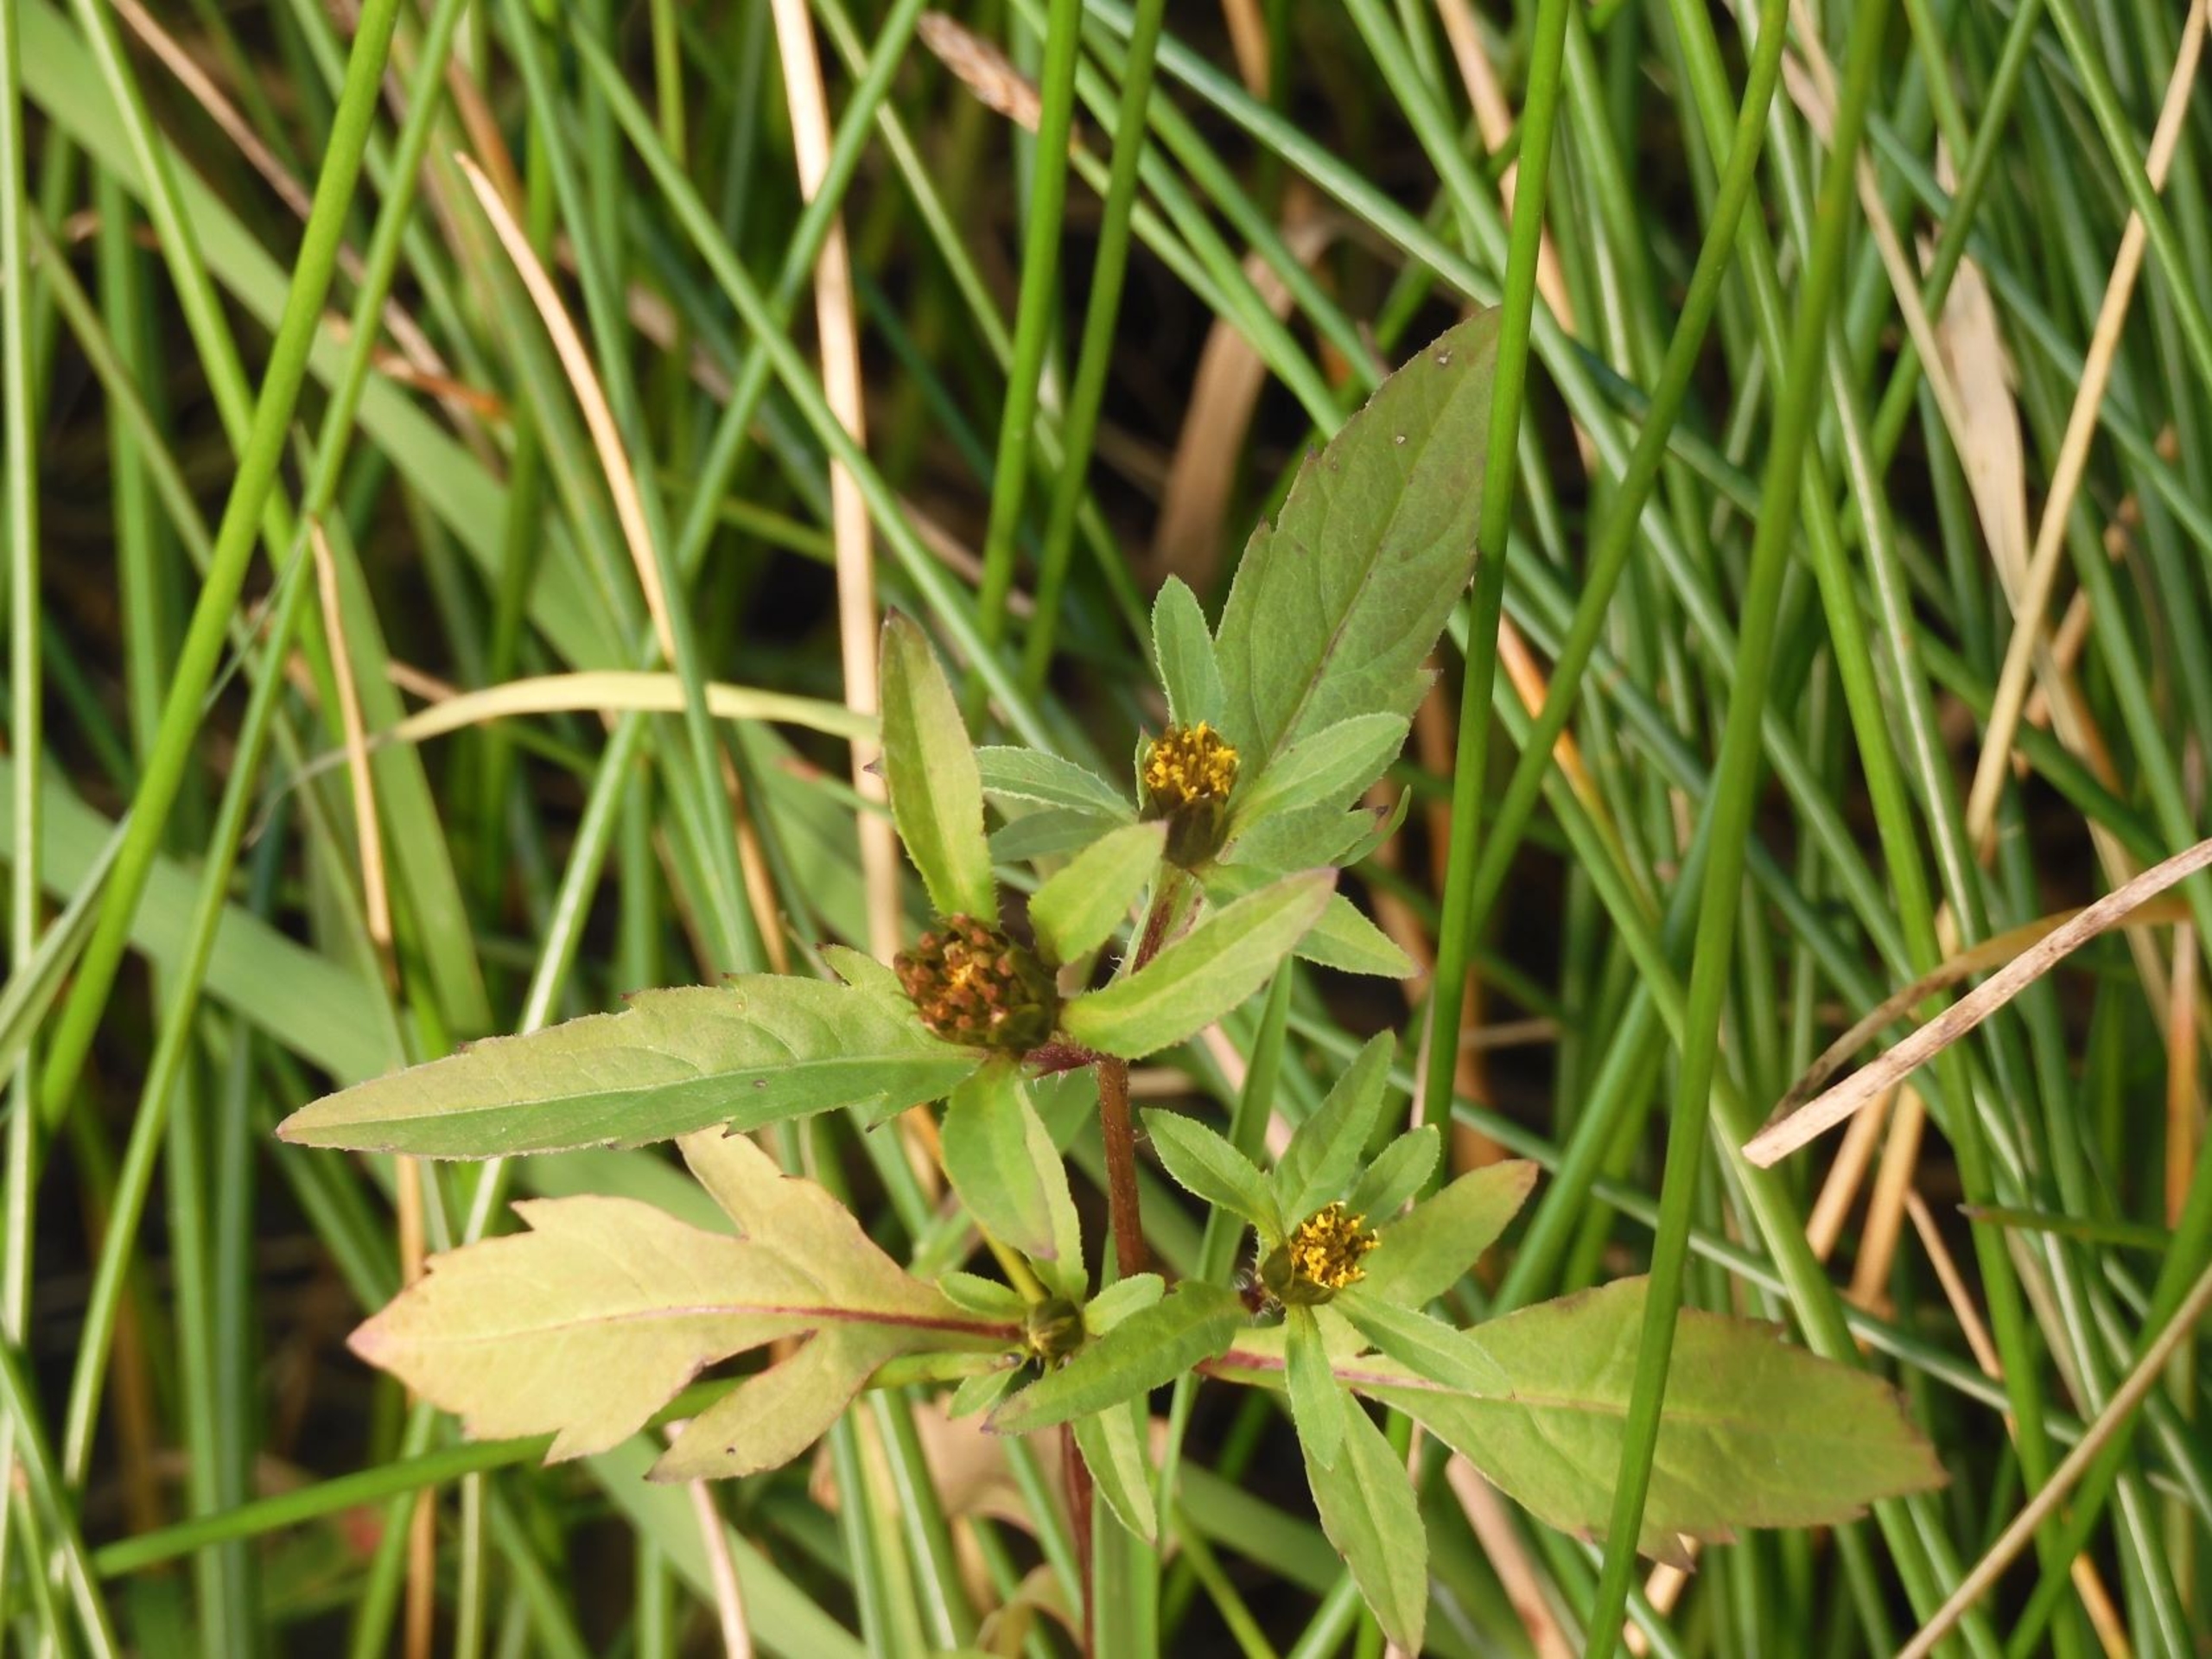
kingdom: Plantae
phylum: Tracheophyta
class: Magnoliopsida
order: Asterales
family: Asteraceae
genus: Bidens
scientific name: Bidens tripartita
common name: Fliget brøndsel
